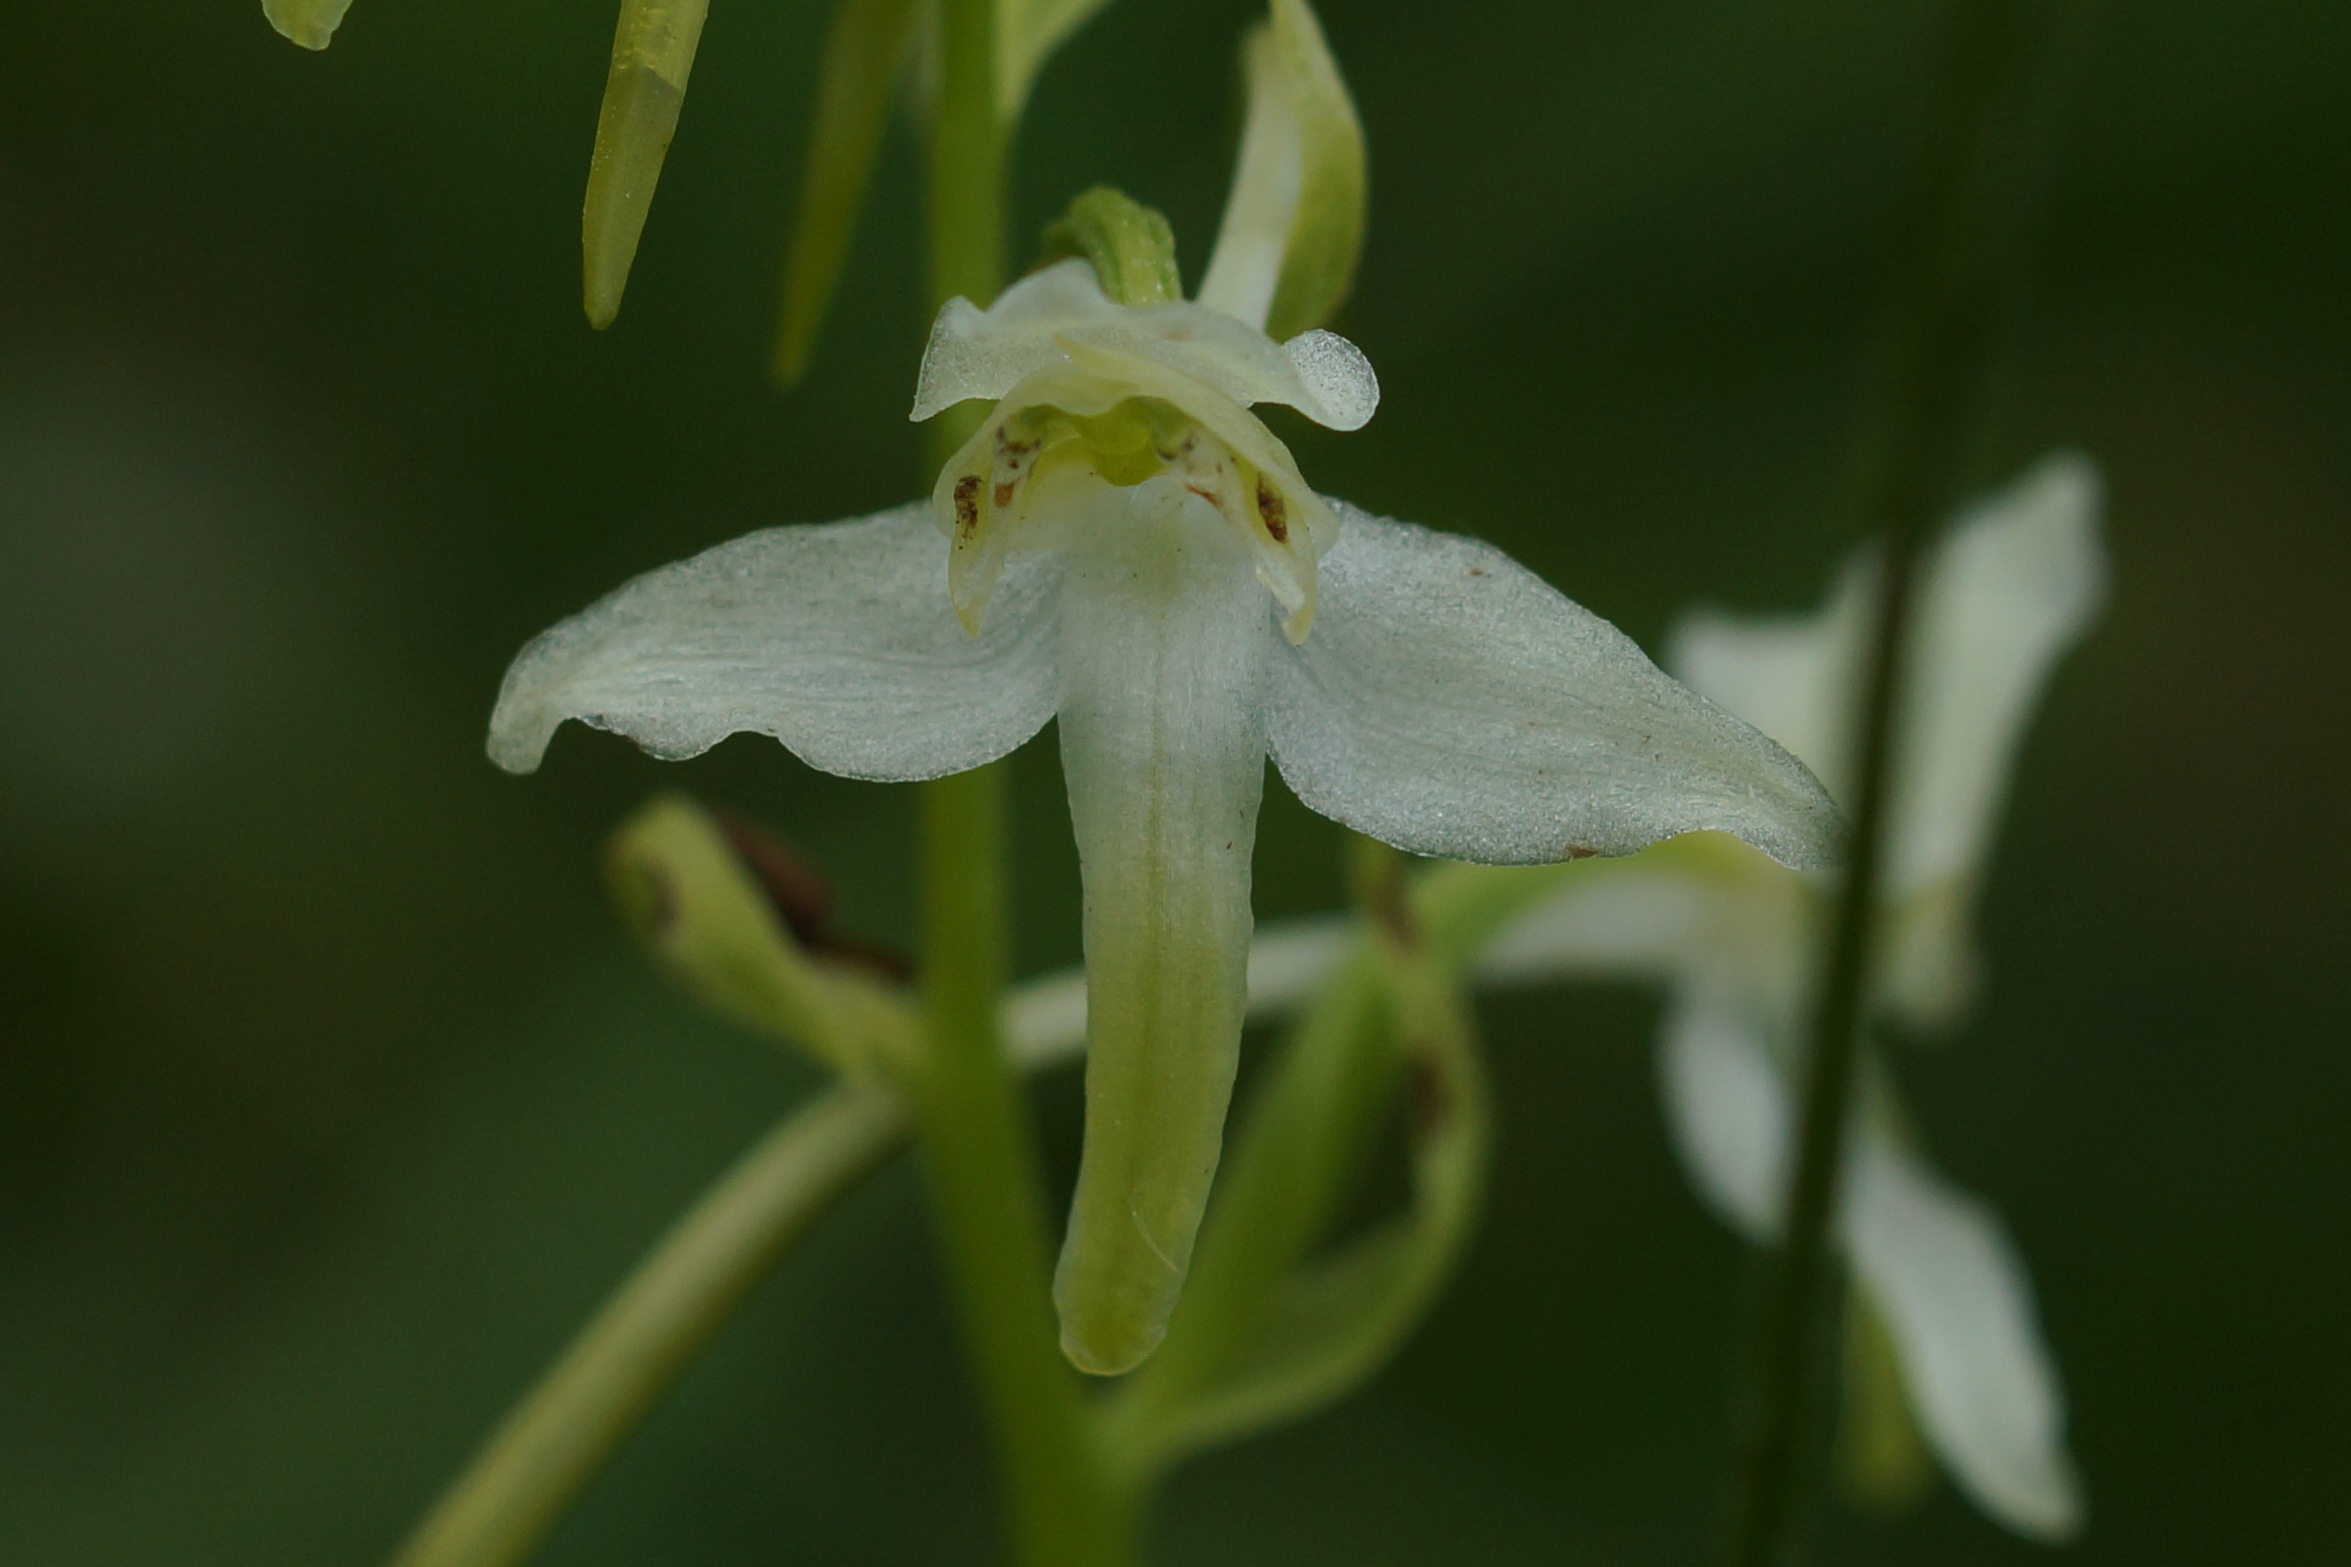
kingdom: Plantae
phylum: Tracheophyta
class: Liliopsida
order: Asparagales
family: Orchidaceae
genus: Platanthera
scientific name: Platanthera chlorantha
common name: Skov-gøgelilje
